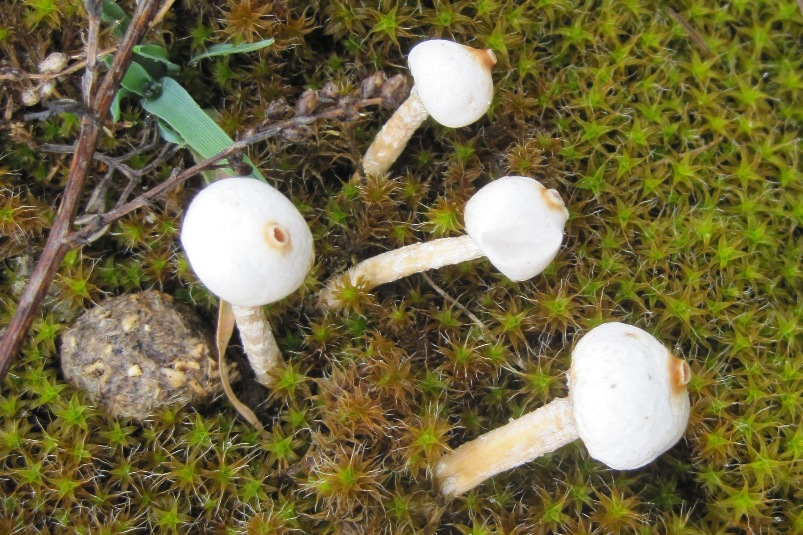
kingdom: Fungi
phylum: Basidiomycota
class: Agaricomycetes
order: Agaricales
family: Agaricaceae
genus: Tulostoma
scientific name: Tulostoma brumale
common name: vinter-stilkbovist
